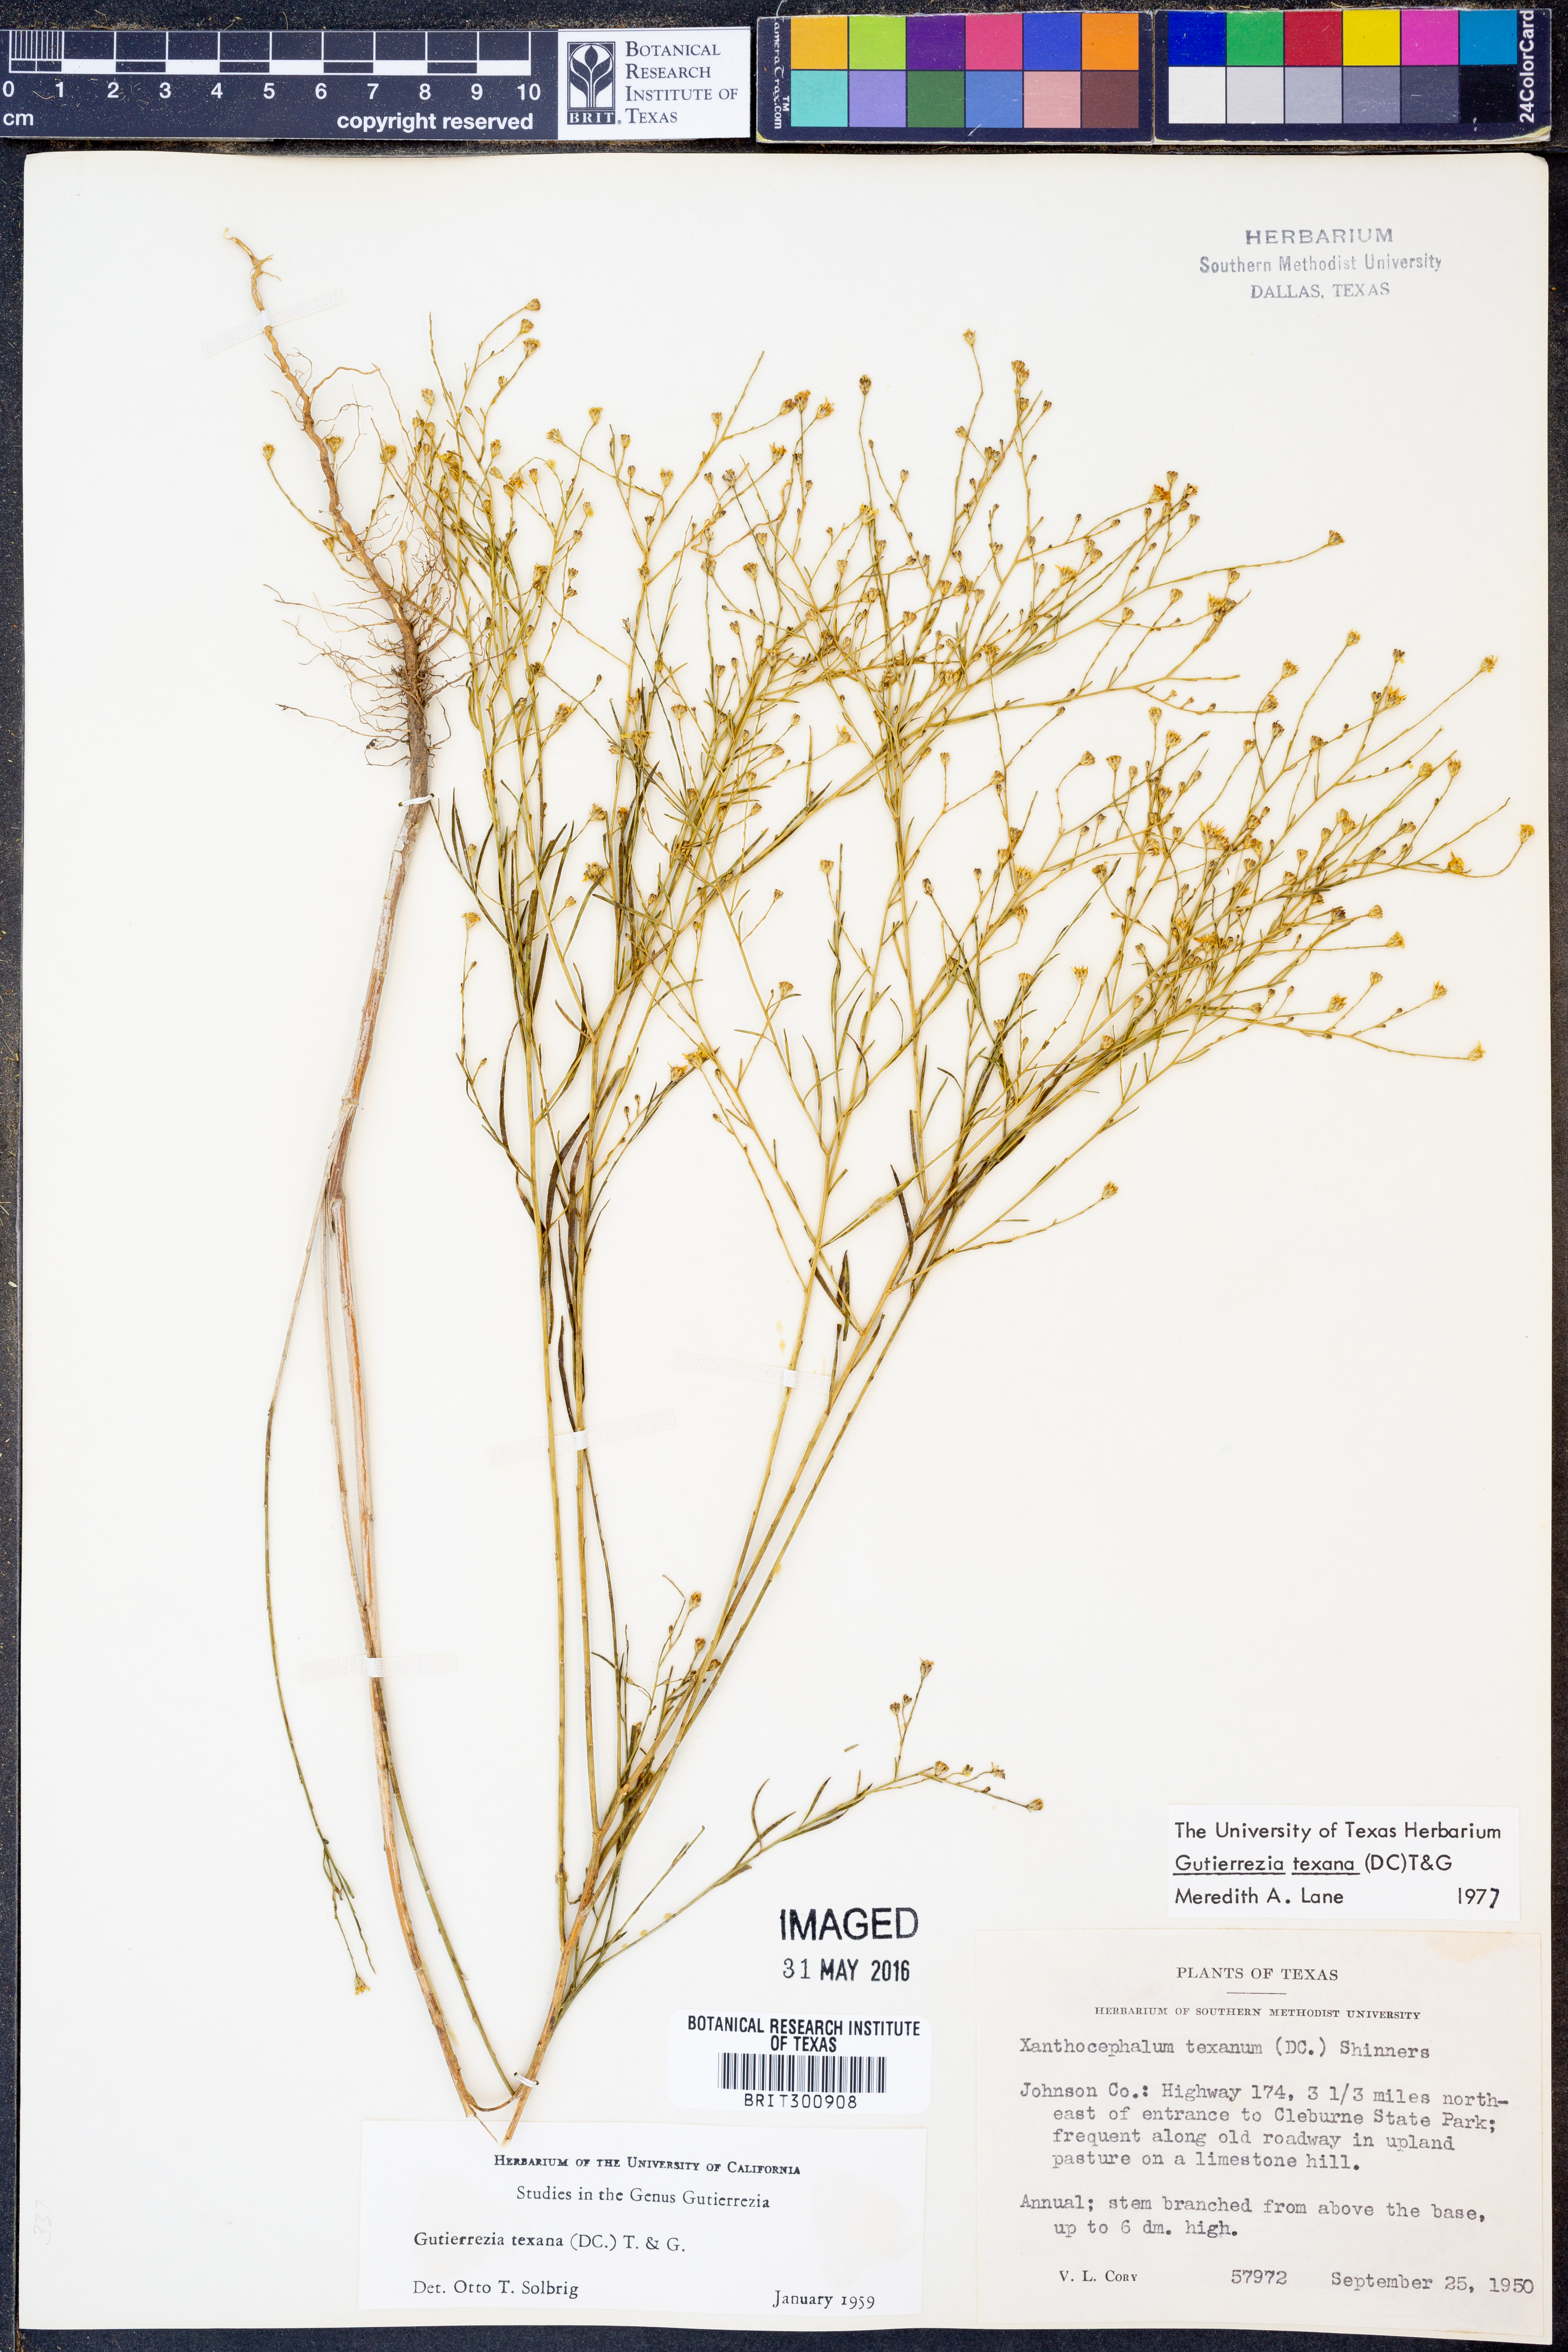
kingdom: Plantae
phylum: Tracheophyta
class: Magnoliopsida
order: Asterales
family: Asteraceae
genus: Gutierrezia
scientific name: Gutierrezia texana
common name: Texas snakeweed
